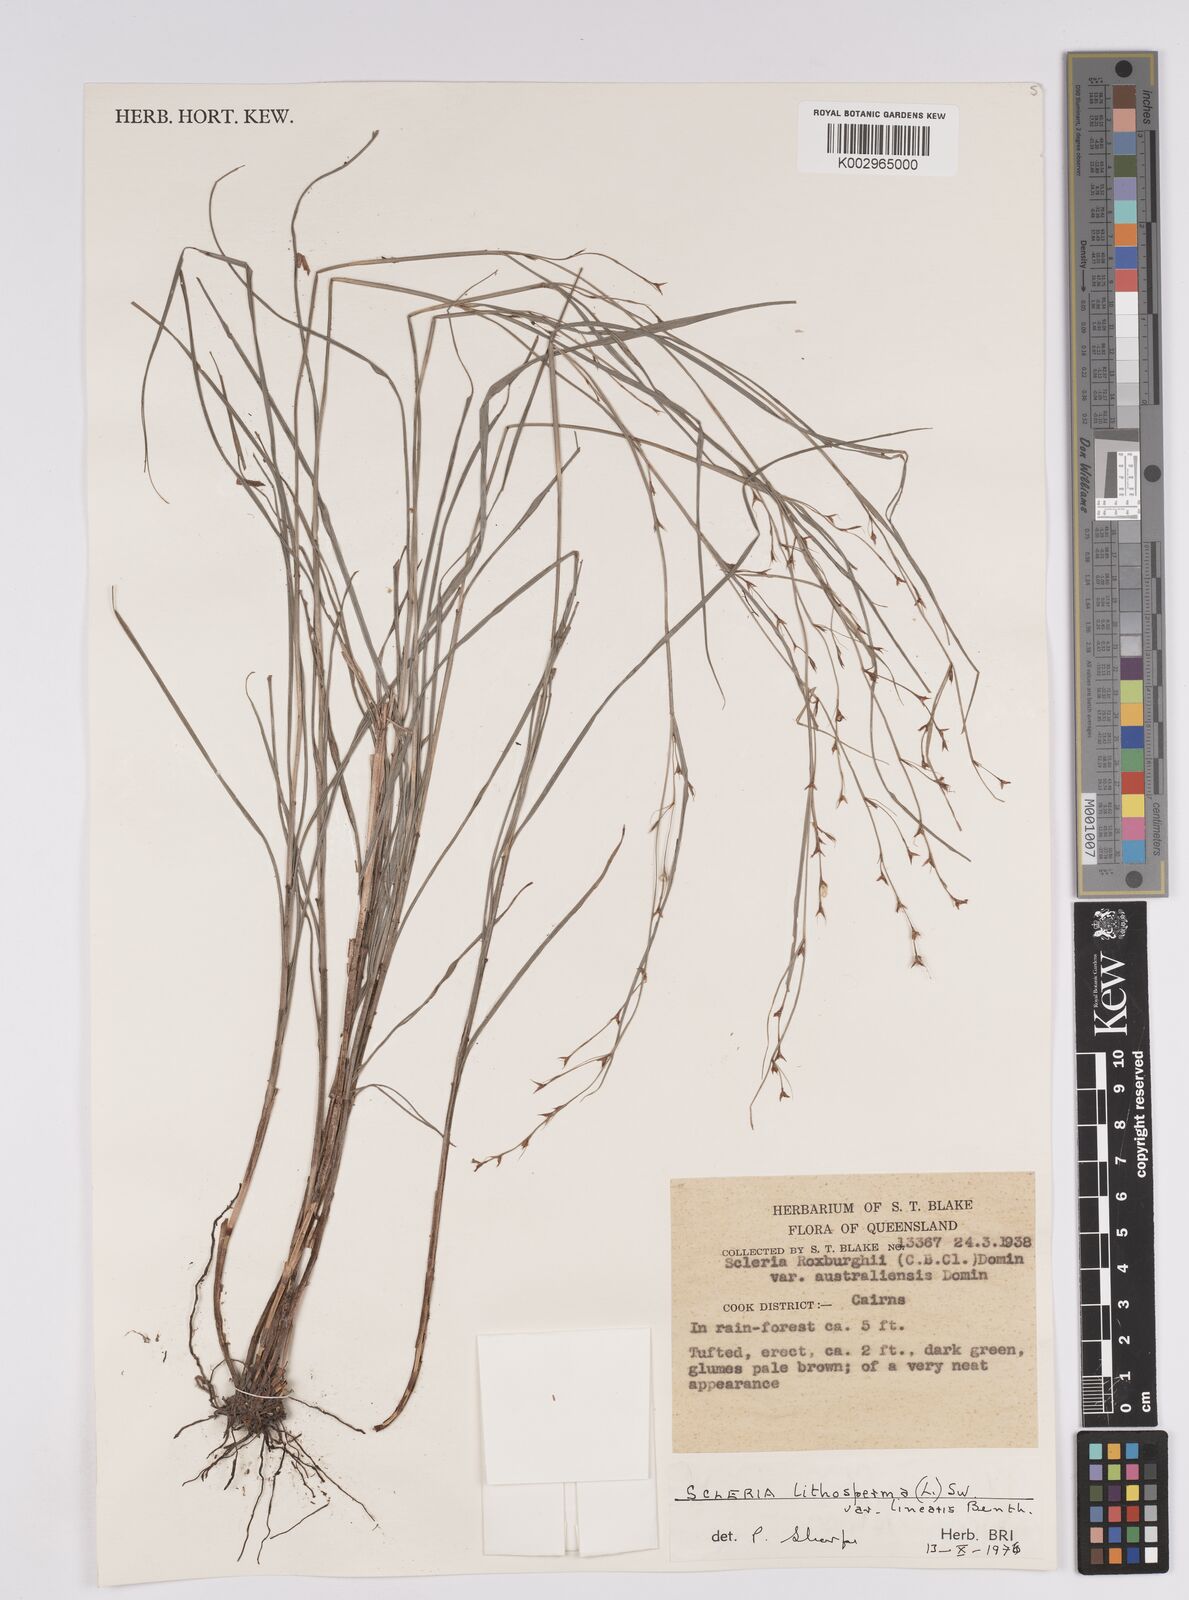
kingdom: Plantae
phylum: Tracheophyta
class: Liliopsida
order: Poales
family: Cyperaceae
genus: Scleria
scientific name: Scleria lithosperma
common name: Florida keys nut-rush
